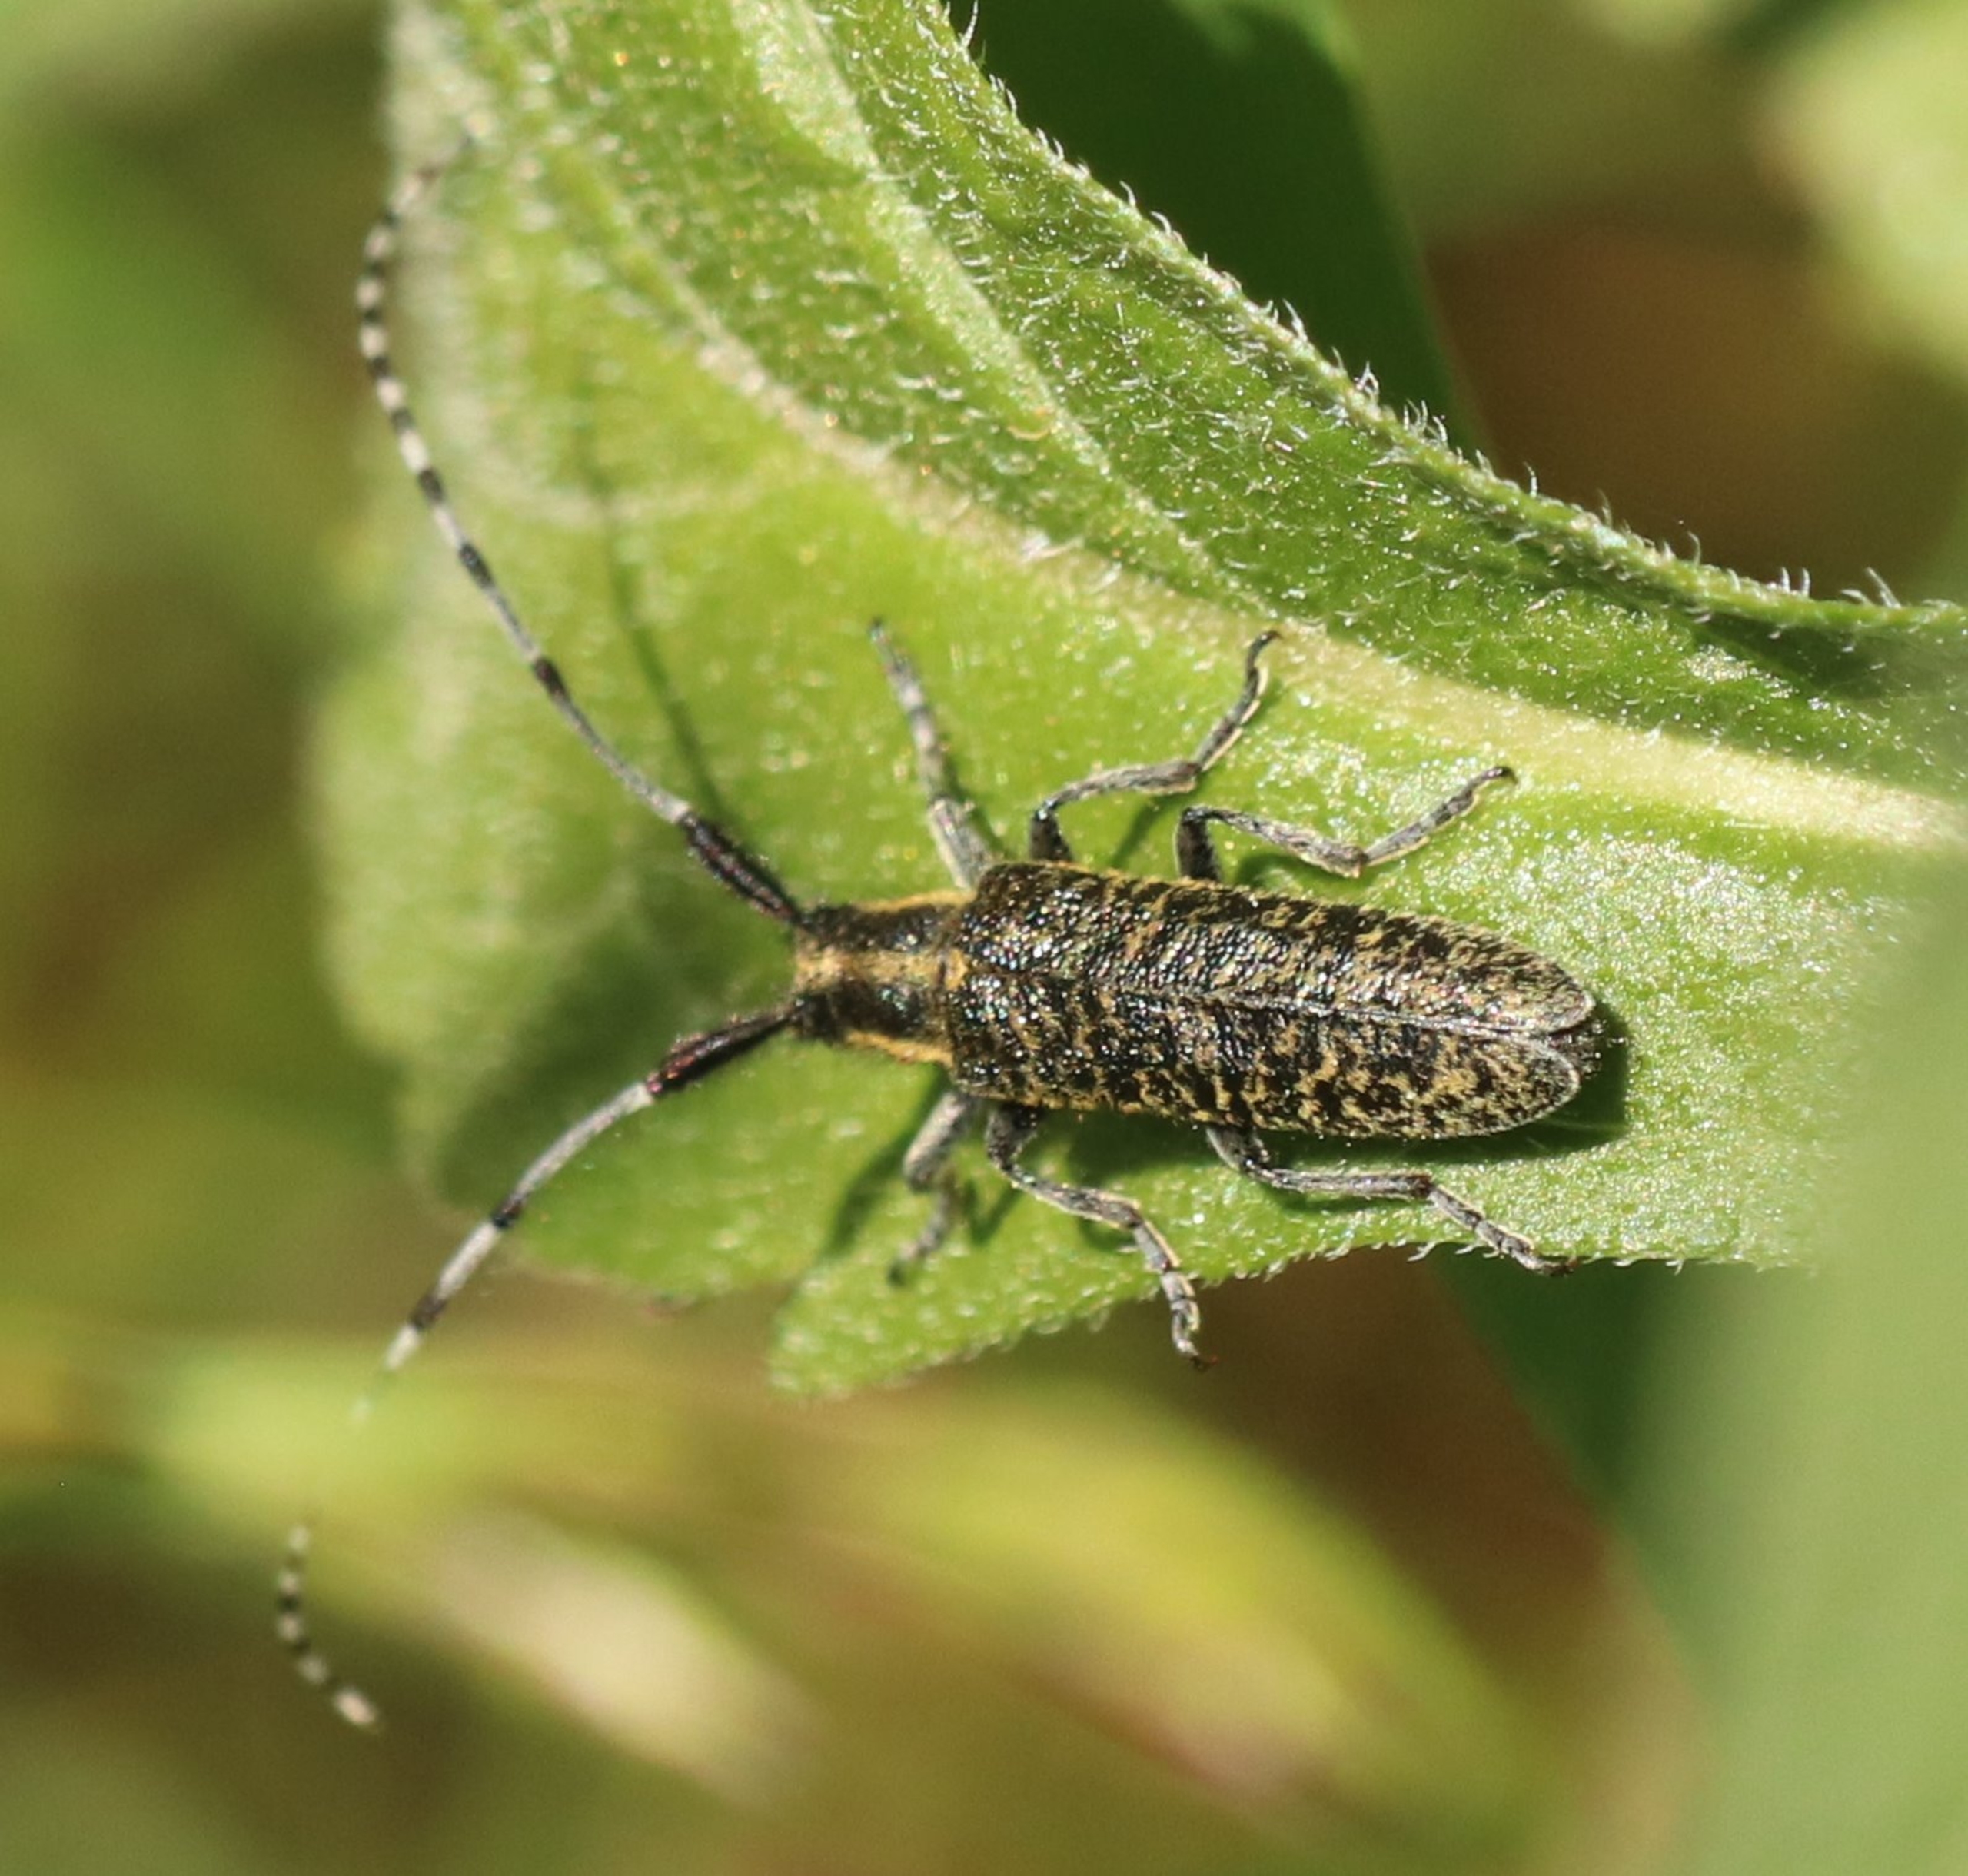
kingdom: Animalia
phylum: Arthropoda
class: Insecta
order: Coleoptera
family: Cerambycidae
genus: Agapanthia
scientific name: Agapanthia villosoviridescens
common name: Tidselbuk
